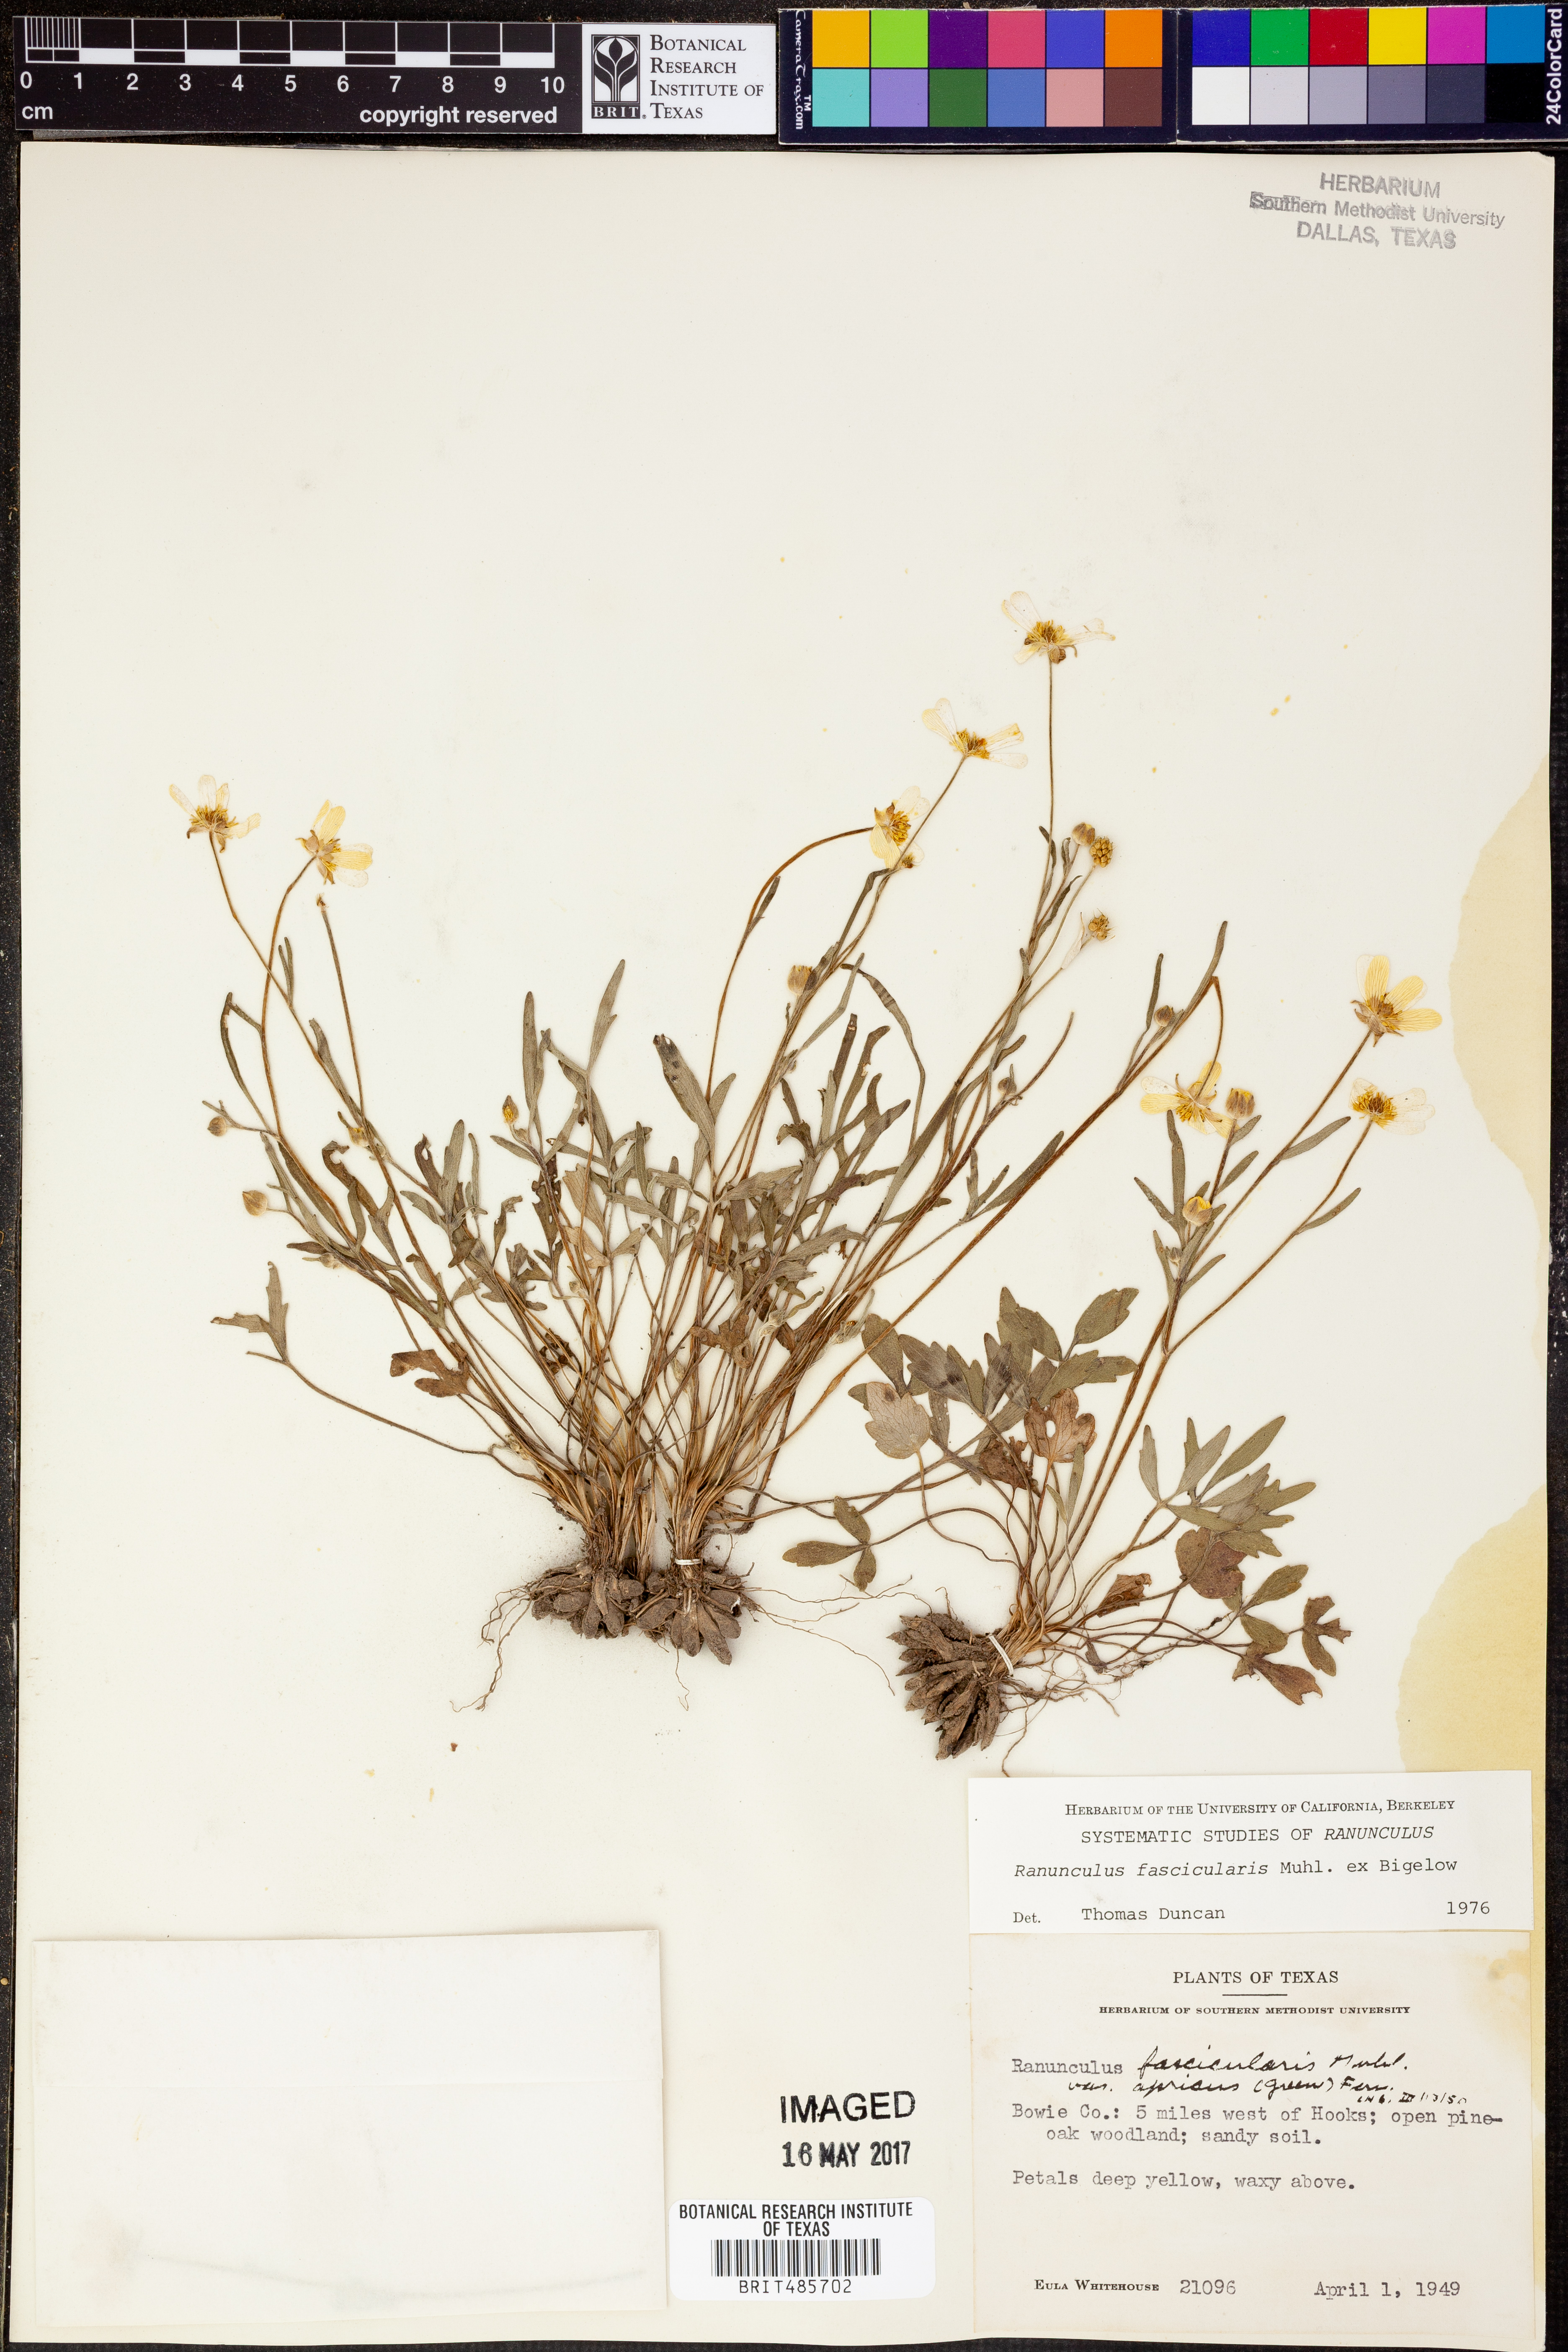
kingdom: Plantae
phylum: Tracheophyta
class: Magnoliopsida
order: Ranunculales
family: Ranunculaceae
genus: Ranunculus
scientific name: Ranunculus fascicularis
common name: Early buttercup
